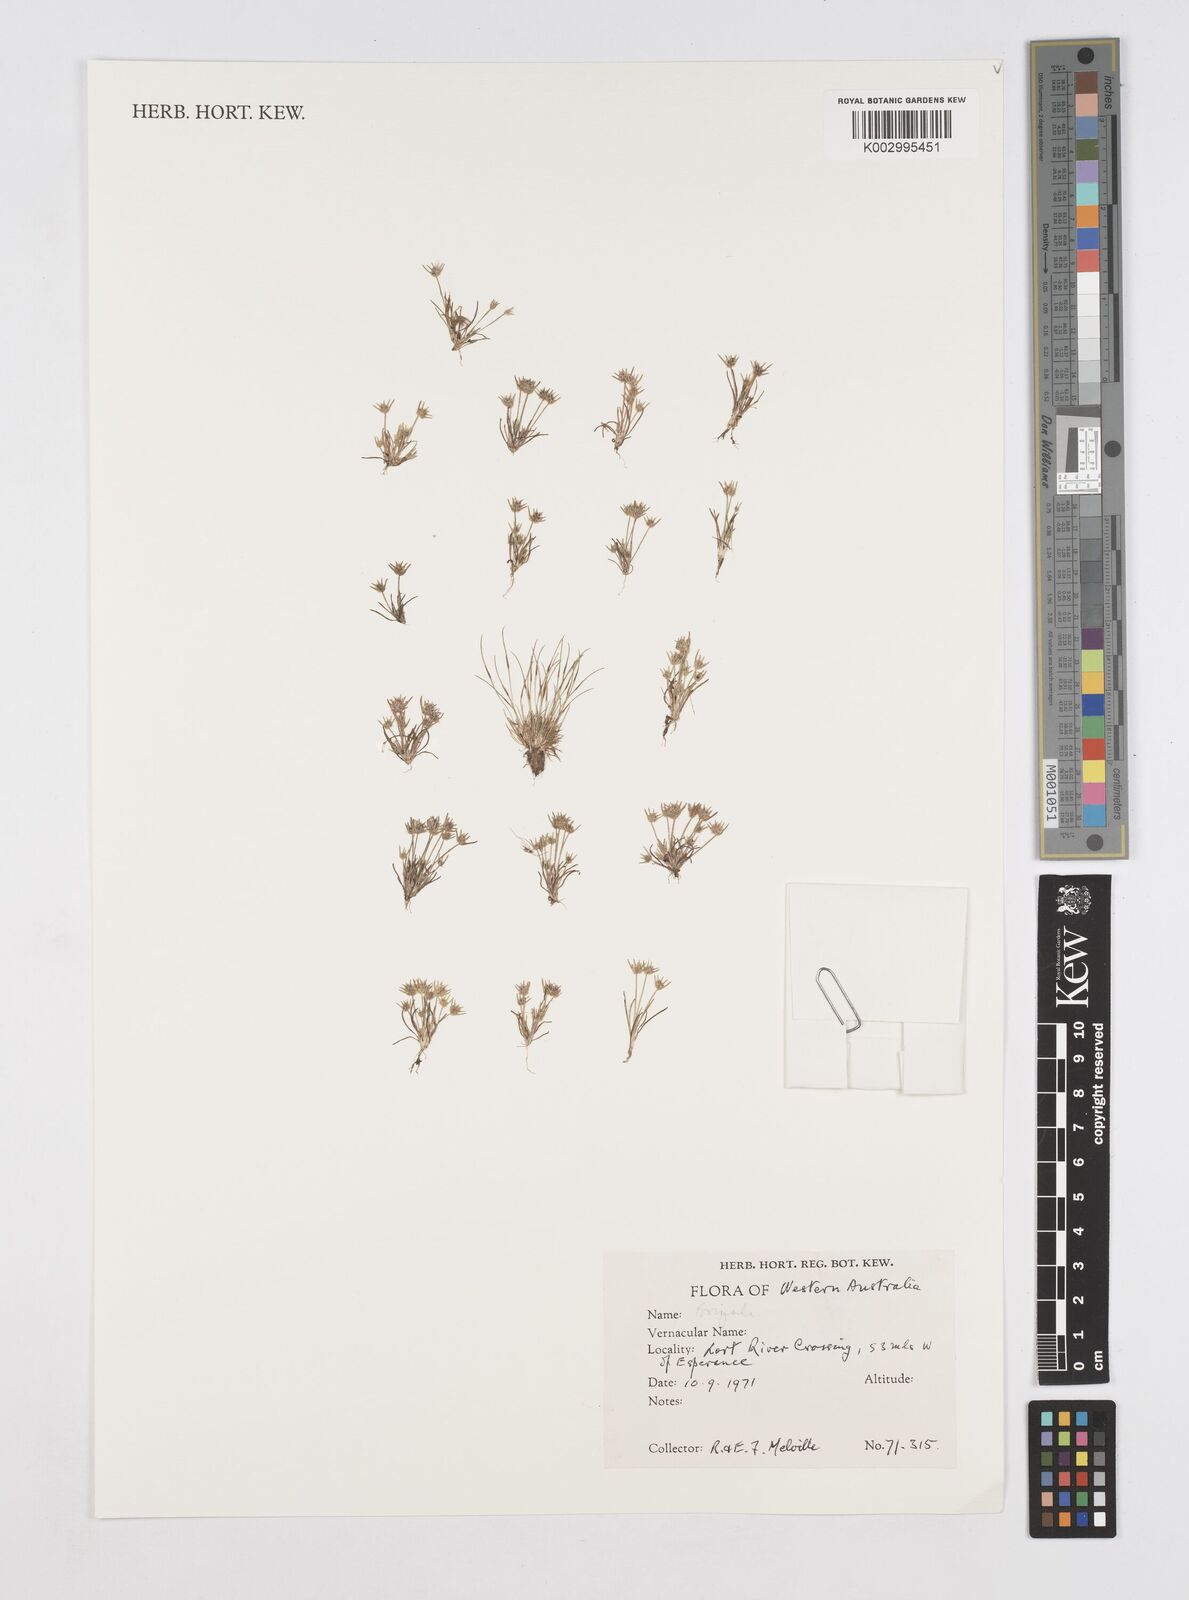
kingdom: Plantae
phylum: Tracheophyta
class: Liliopsida
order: Poales
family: Restionaceae
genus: Aphelia
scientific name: Aphelia
